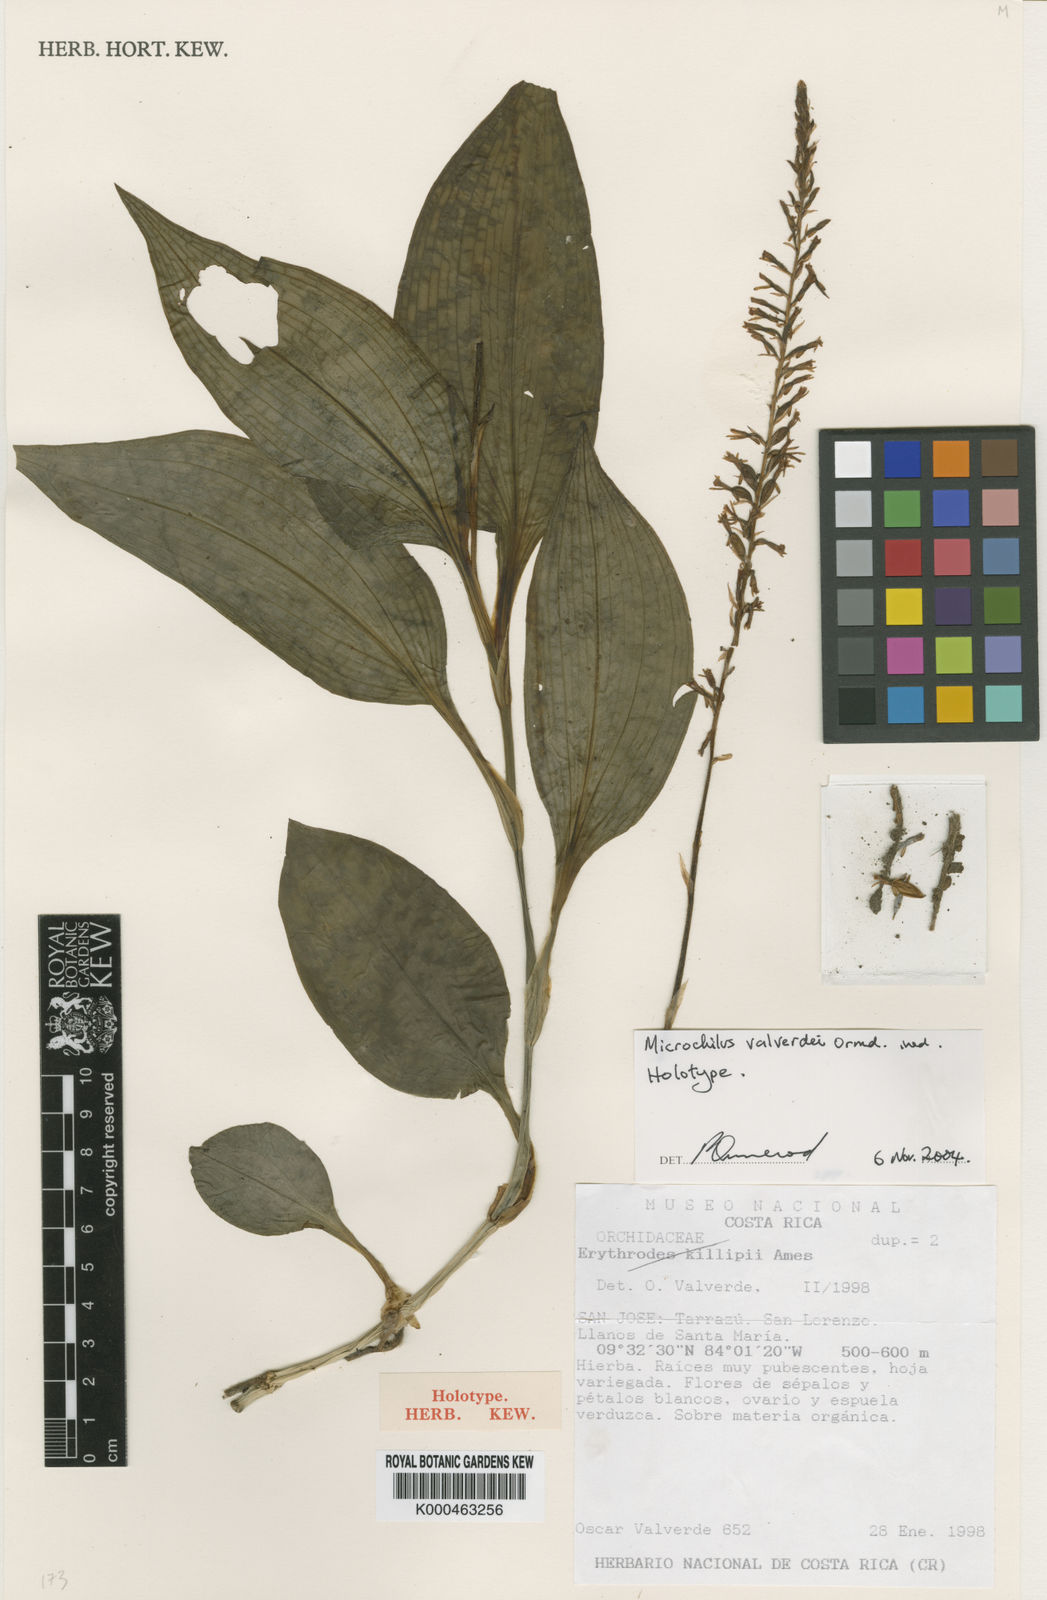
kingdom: Plantae
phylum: Tracheophyta
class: Liliopsida
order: Asparagales
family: Orchidaceae
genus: Microchilus
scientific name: Microchilus valverdei
